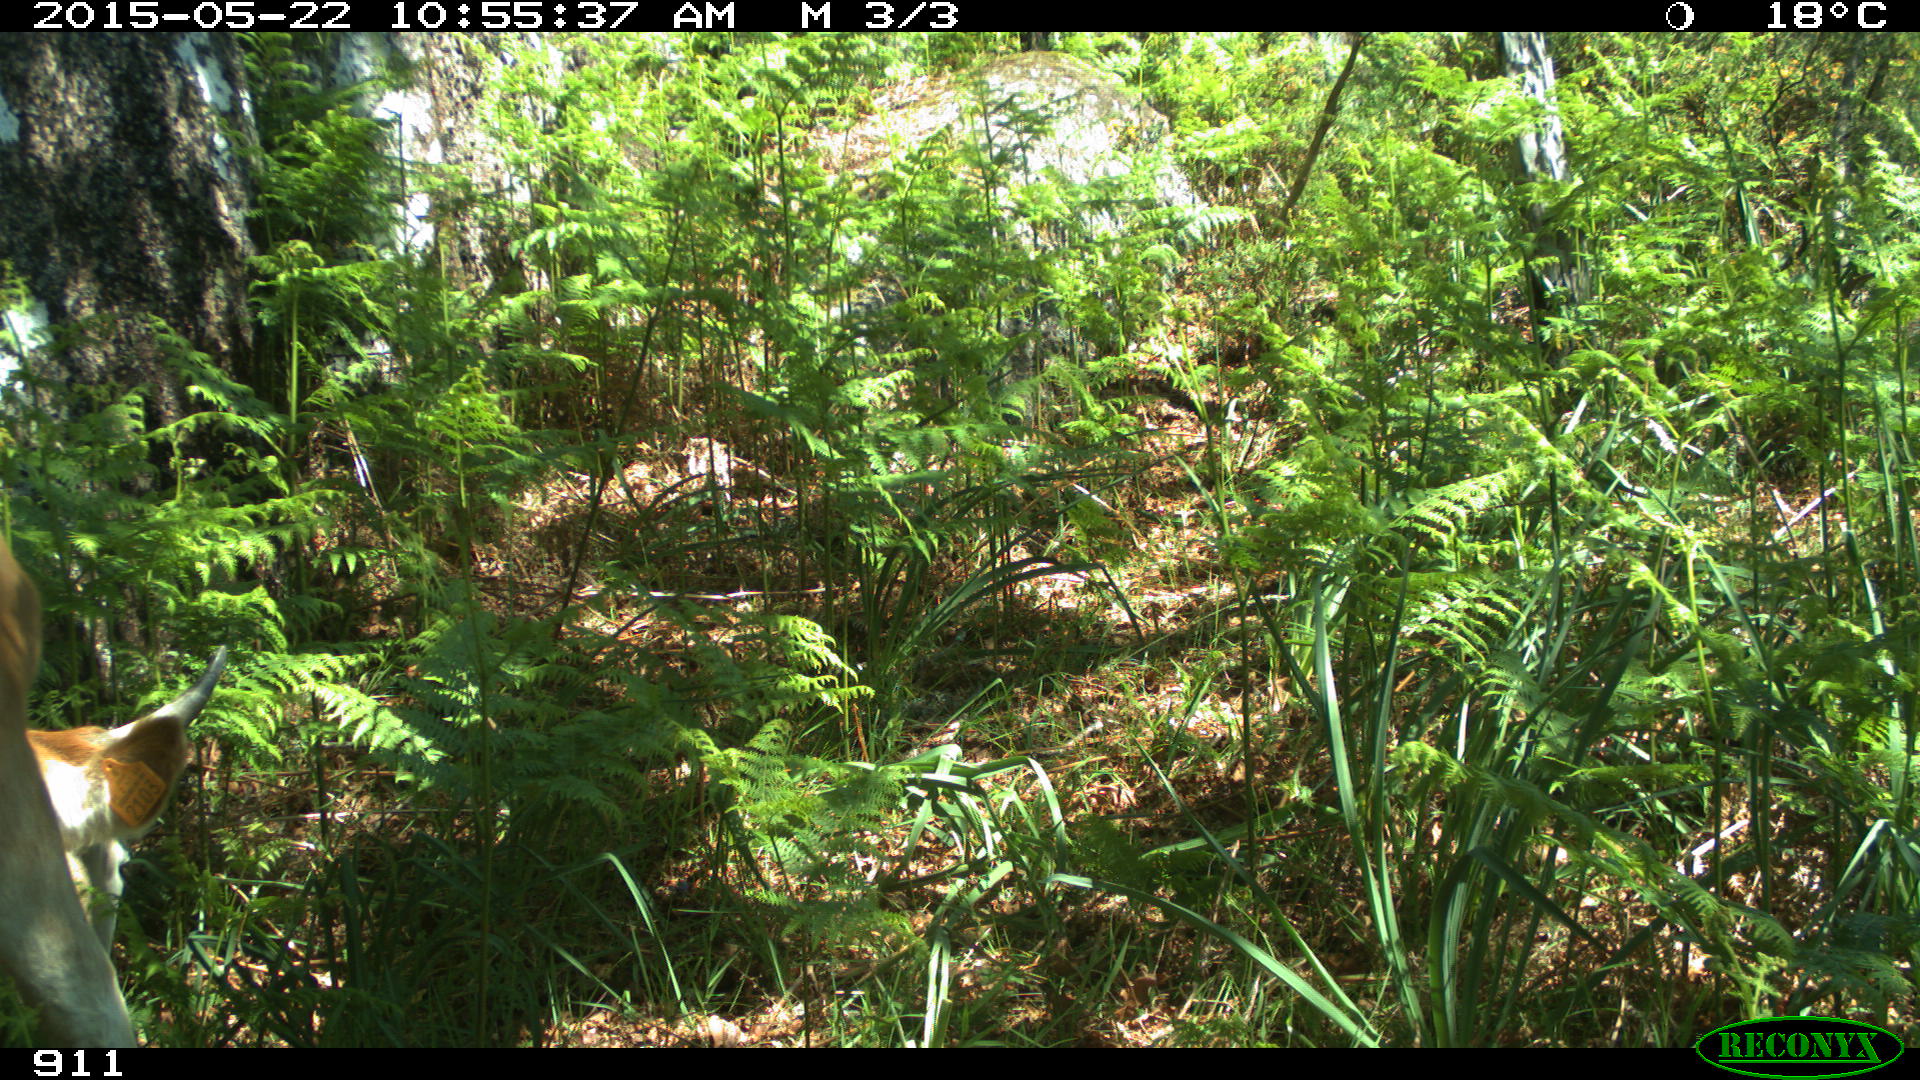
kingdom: Animalia
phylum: Chordata
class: Mammalia
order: Artiodactyla
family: Bovidae
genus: Bos
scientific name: Bos taurus
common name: Domesticated cattle
